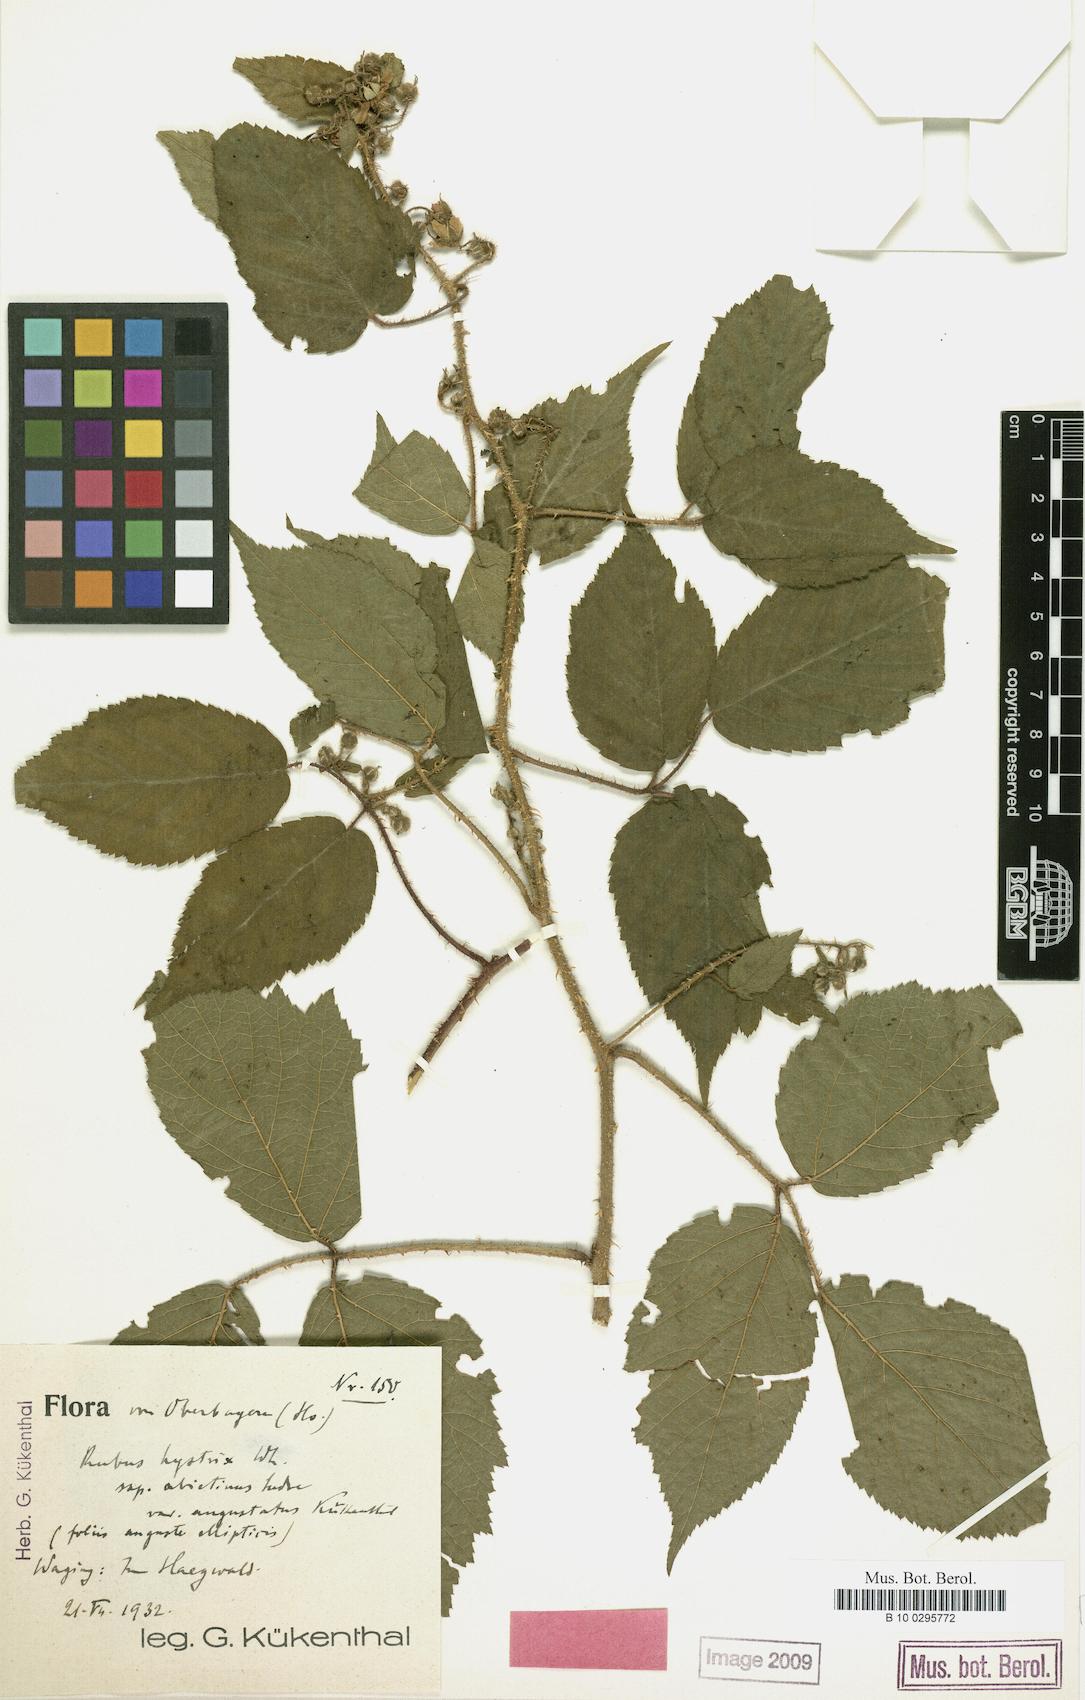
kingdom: Plantae
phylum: Tracheophyta
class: Magnoliopsida
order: Rosales
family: Rosaceae
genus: Rubus
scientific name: Rubus
